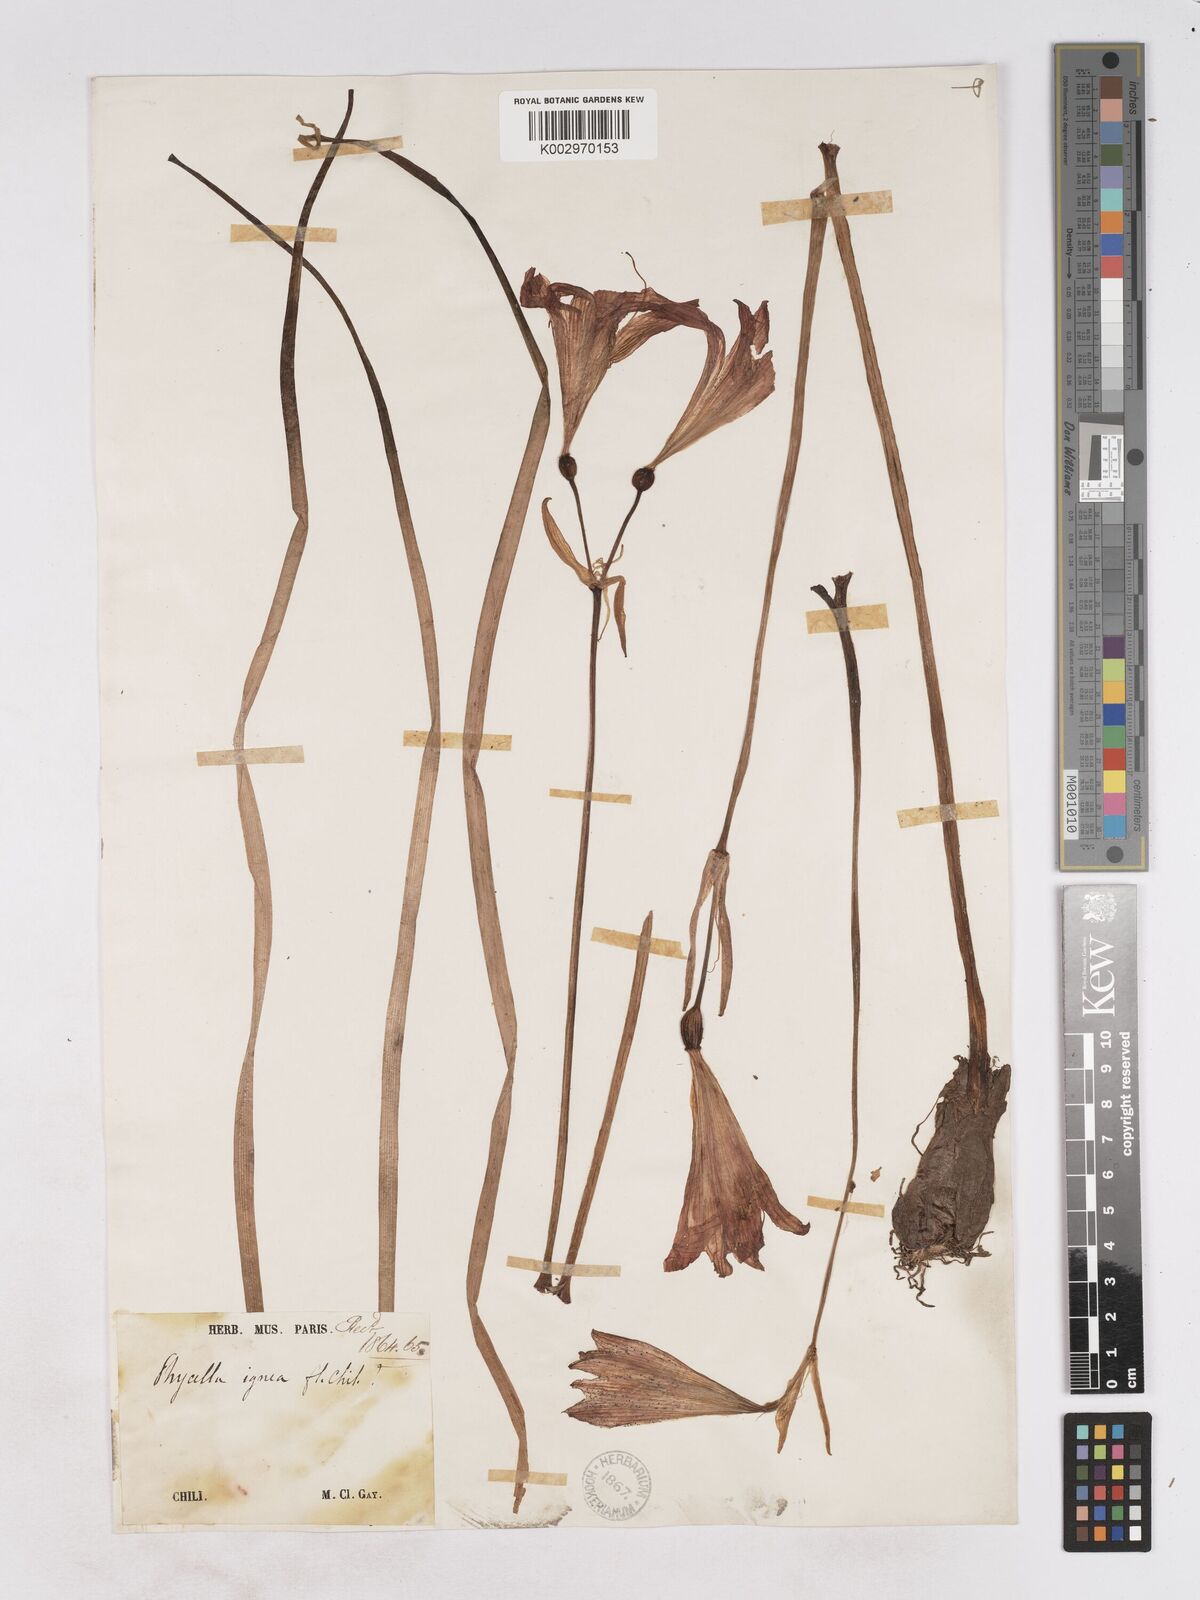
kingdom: Plantae
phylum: Tracheophyta
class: Liliopsida
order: Asparagales
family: Amaryllidaceae
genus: Phycella
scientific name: Phycella chilensis
